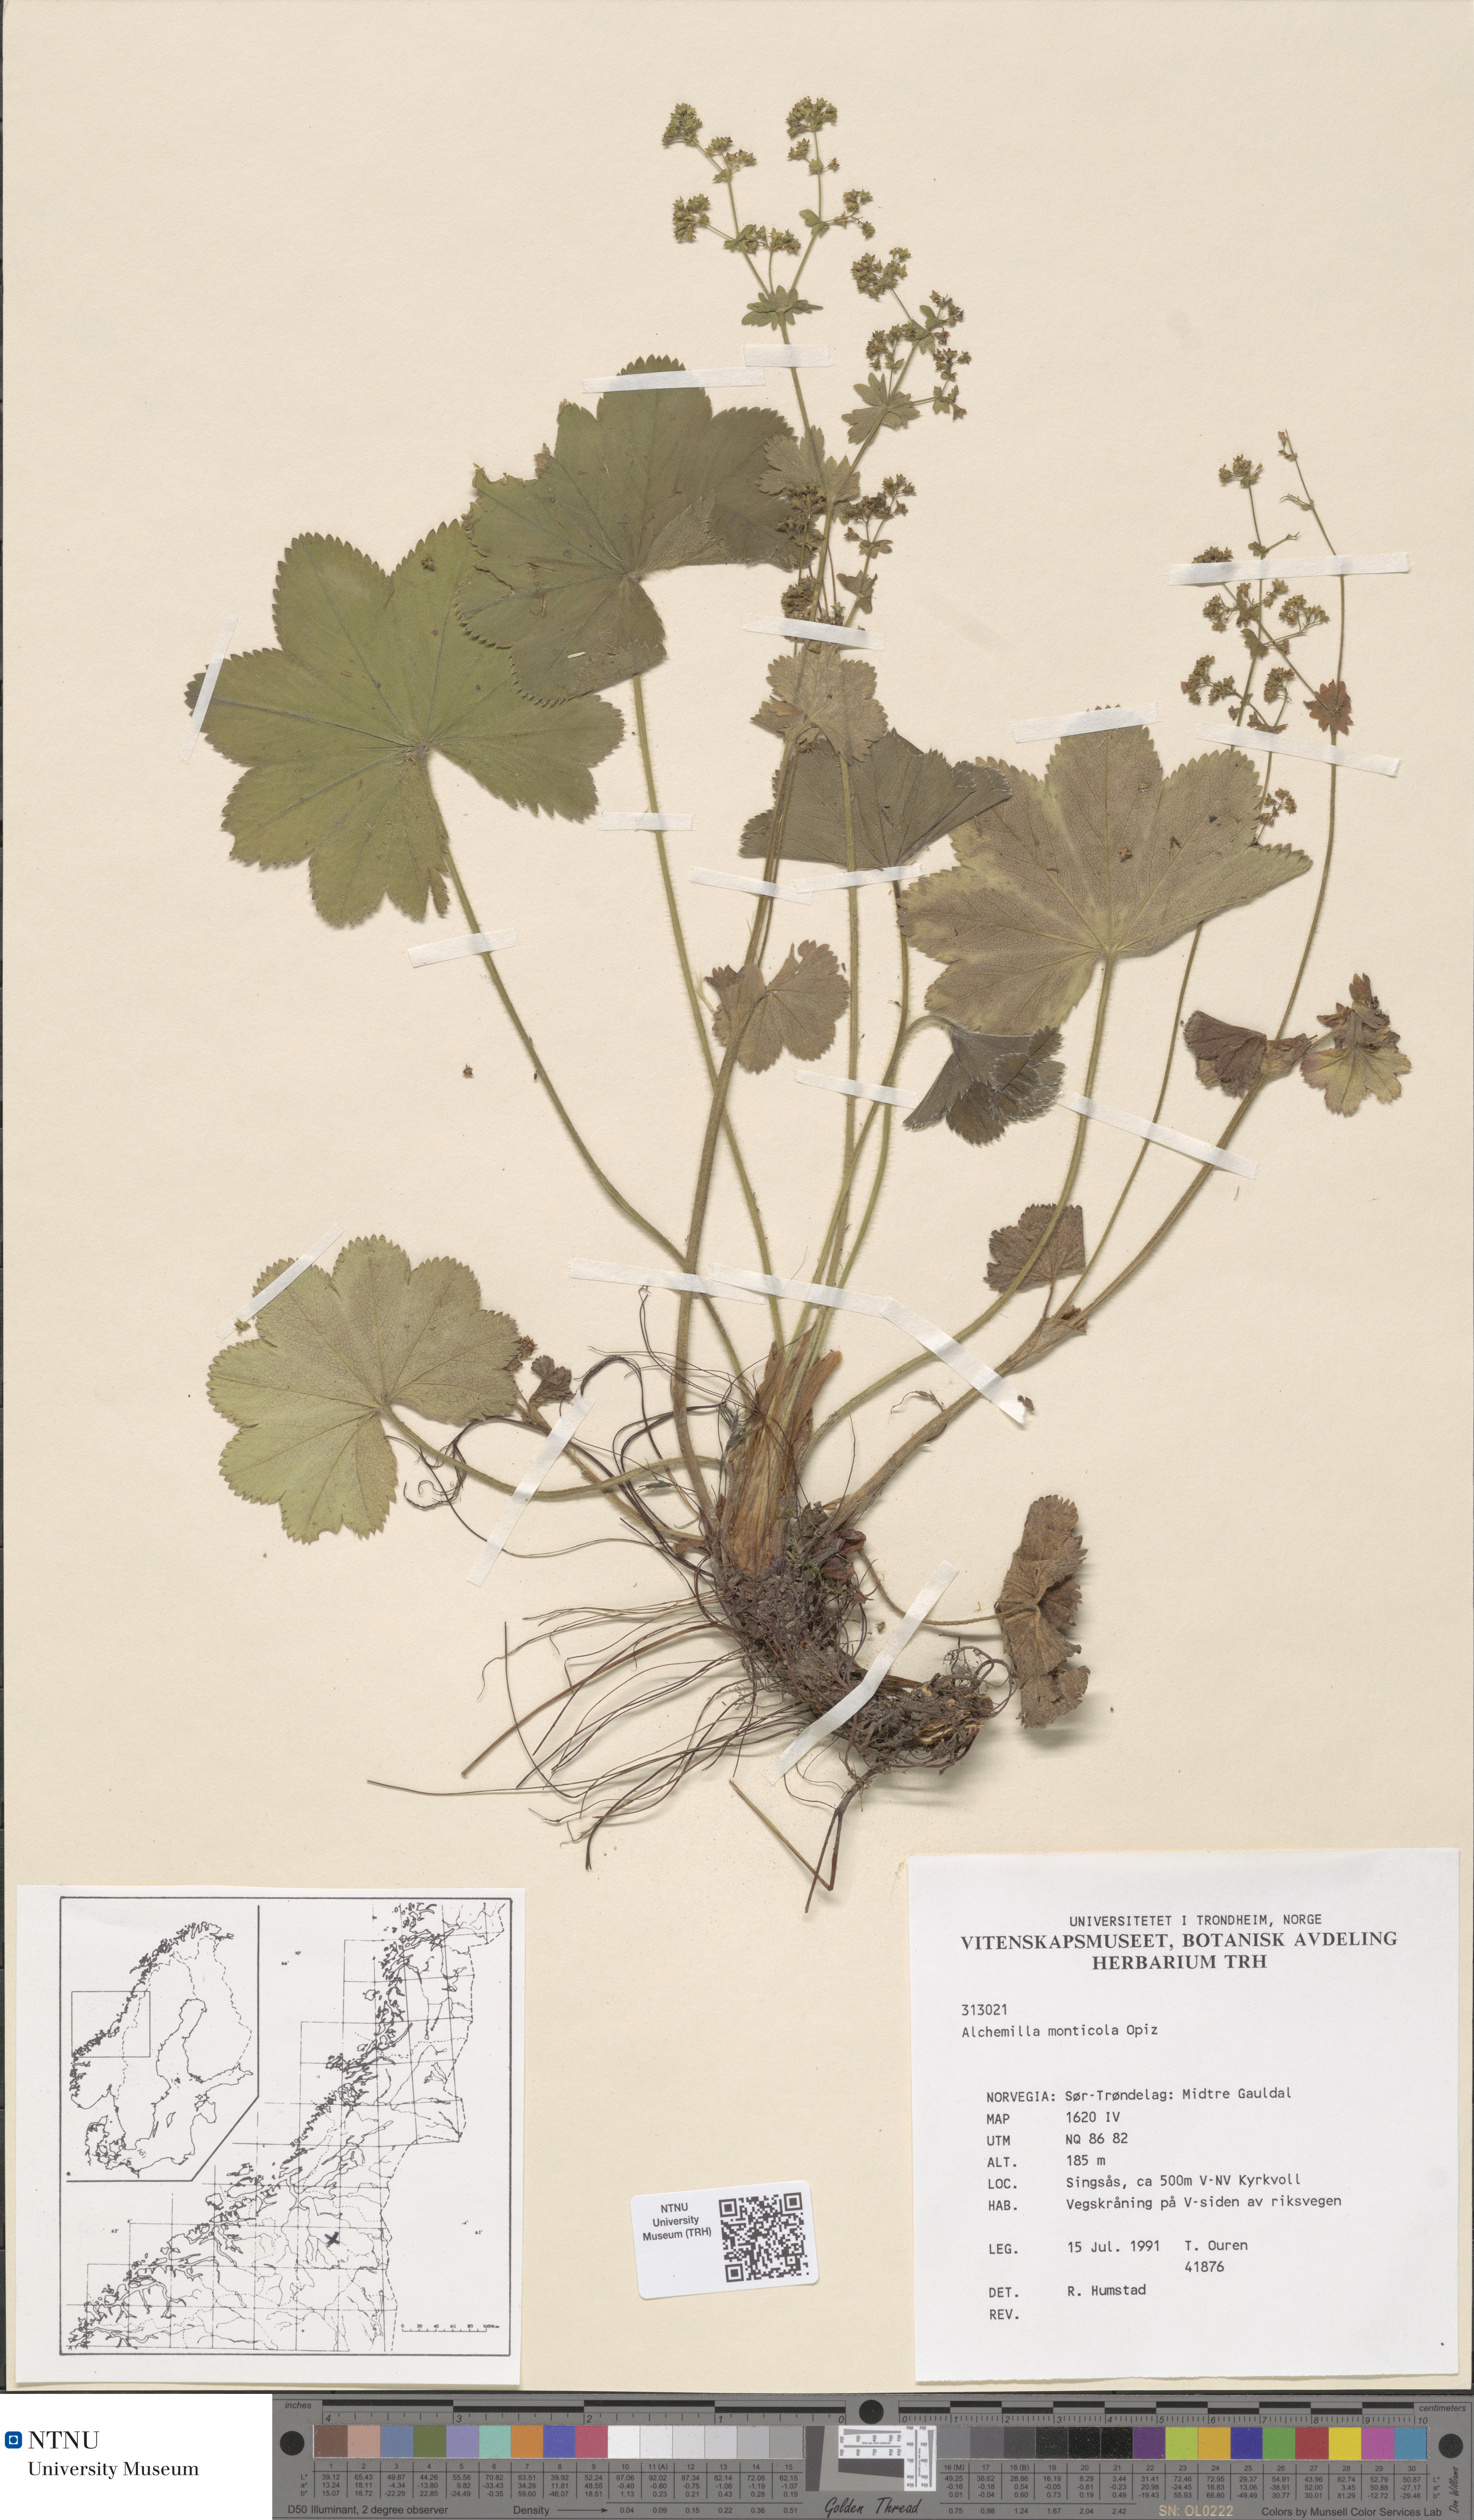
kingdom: Plantae
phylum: Tracheophyta
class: Magnoliopsida
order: Rosales
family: Rosaceae
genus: Alchemilla
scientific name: Alchemilla monticola
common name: Hairy lady's mantle
